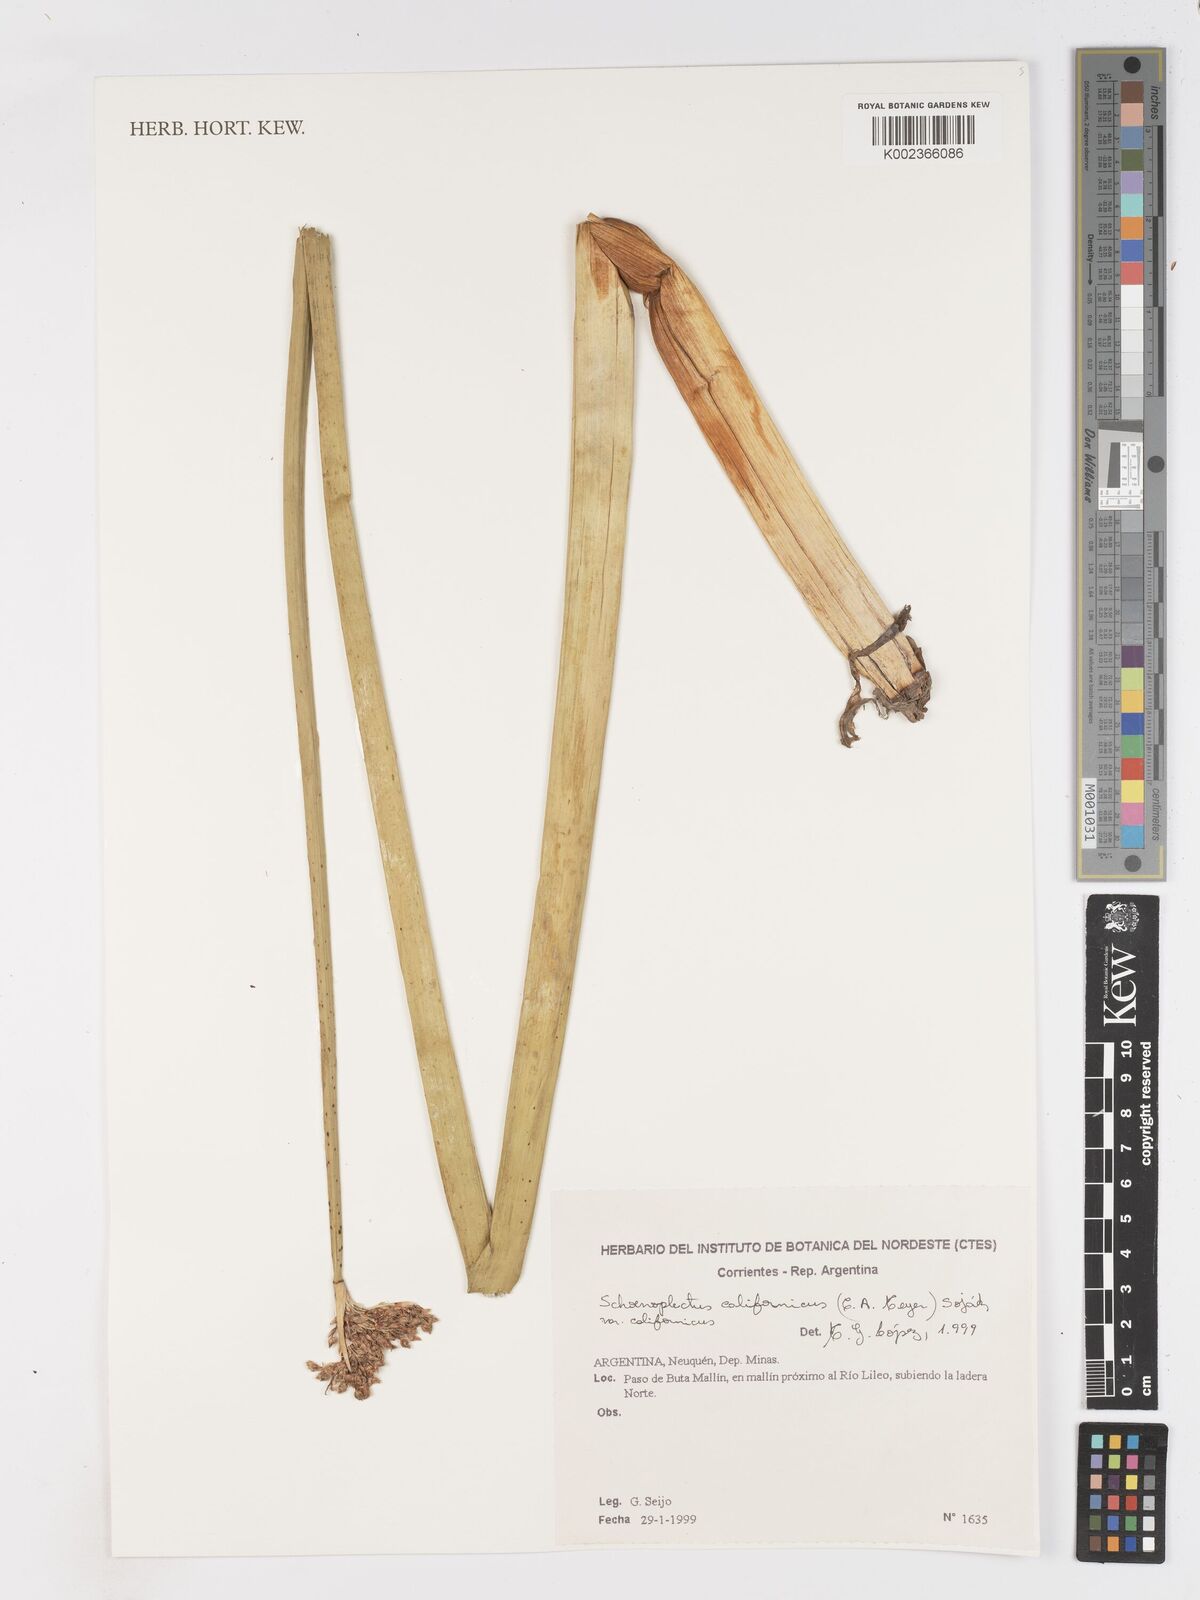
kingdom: Plantae
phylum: Tracheophyta
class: Liliopsida
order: Poales
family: Cyperaceae
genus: Schoenoplectus
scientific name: Schoenoplectus californicus
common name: California bulrush
